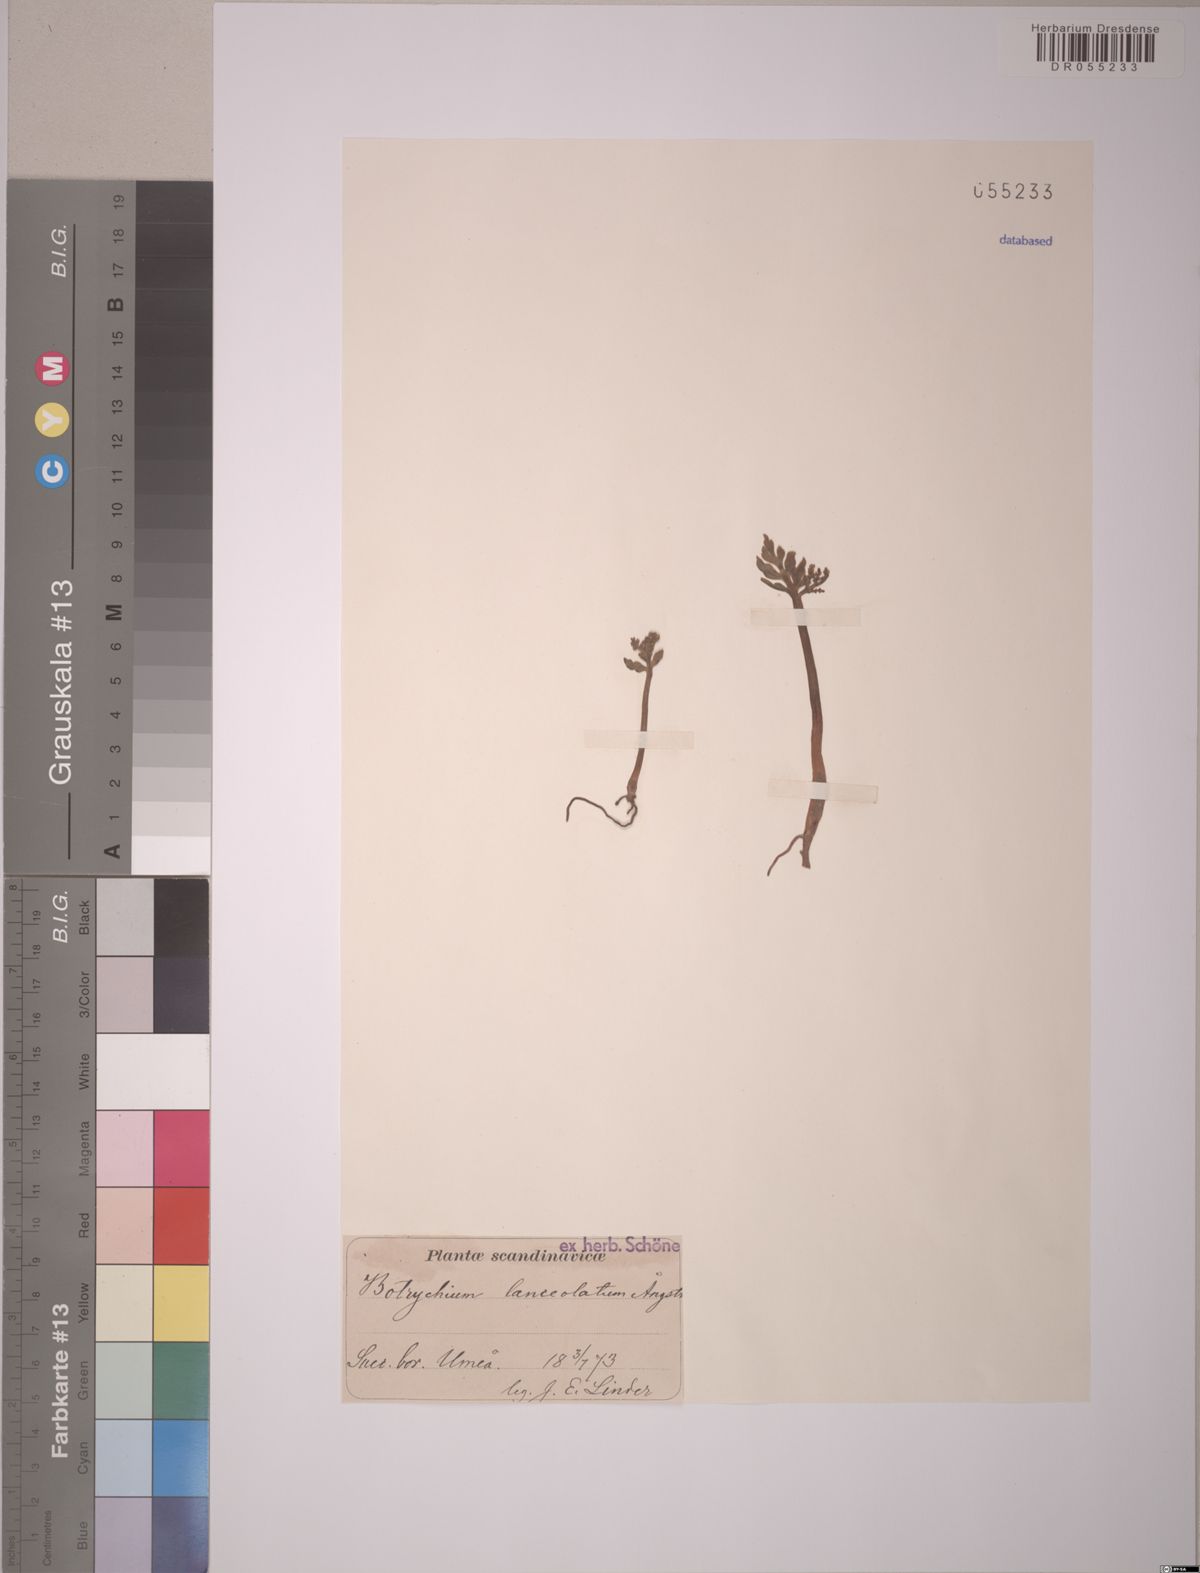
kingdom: Plantae
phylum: Tracheophyta
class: Polypodiopsida
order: Ophioglossales
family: Ophioglossaceae
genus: Botrychium
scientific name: Botrychium lanceolatum
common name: Lance-leaved moonwort
